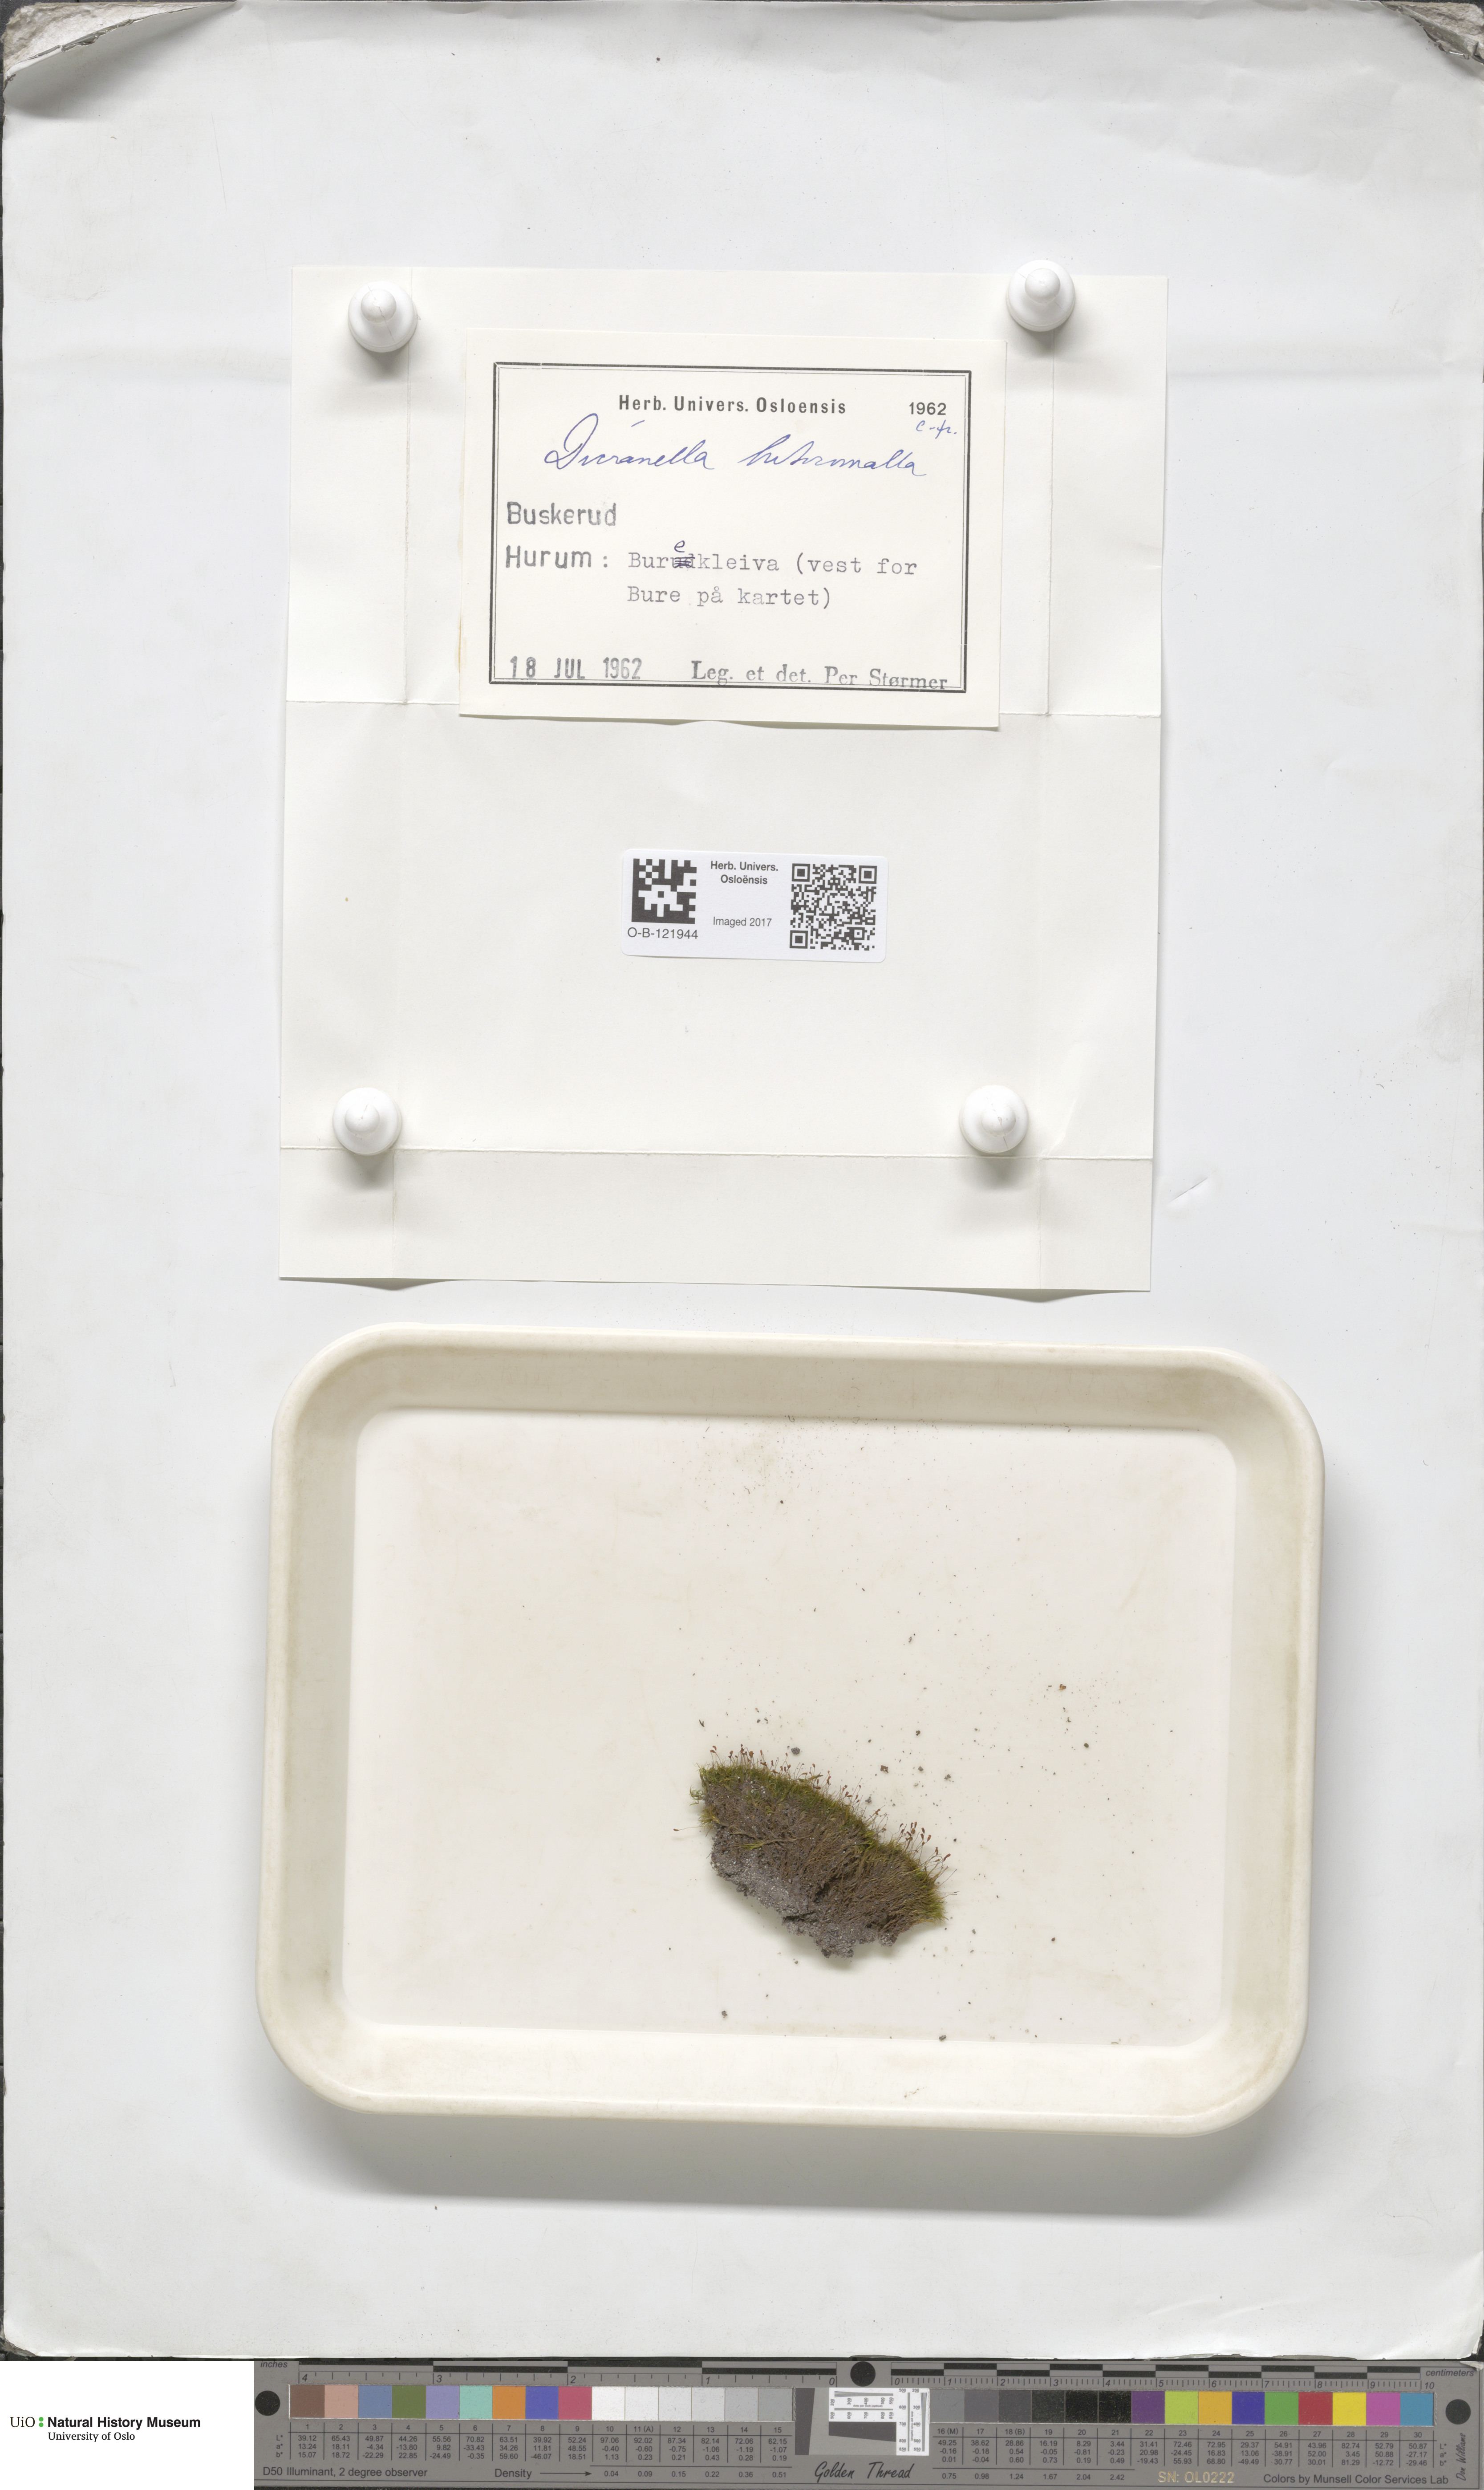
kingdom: Plantae
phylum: Bryophyta
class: Bryopsida
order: Dicranales
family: Dicranellaceae
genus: Dicranella
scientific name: Dicranella heteromalla
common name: Silky forklet moss
